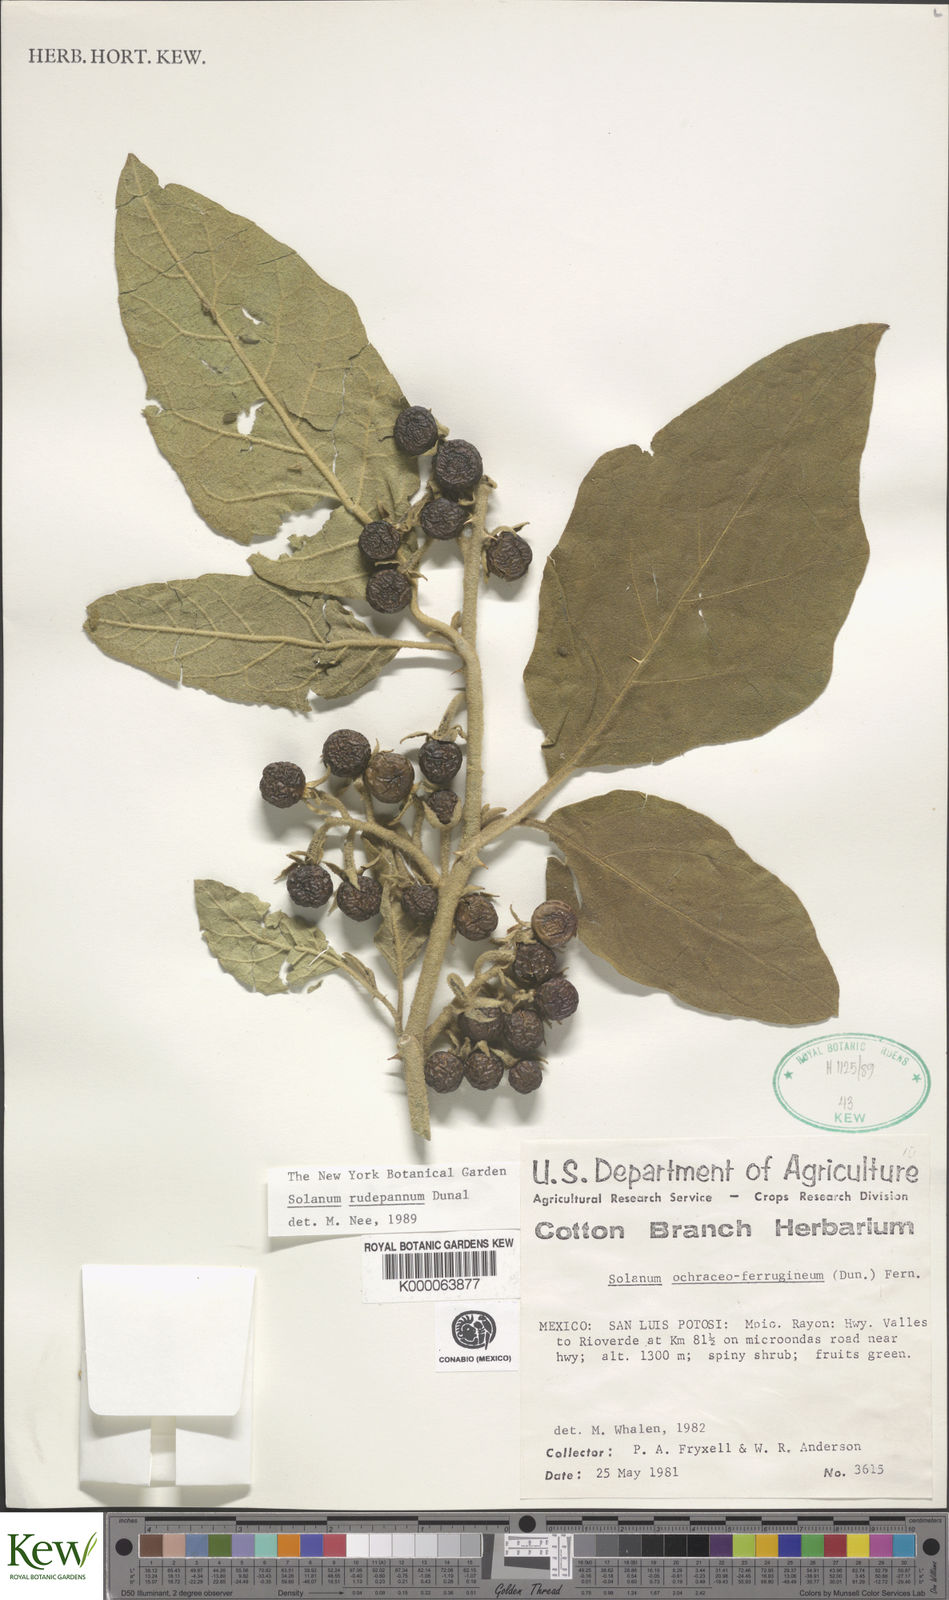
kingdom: Plantae
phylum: Tracheophyta
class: Magnoliopsida
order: Solanales
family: Solanaceae
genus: Solanum
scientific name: Solanum rude-pannum
